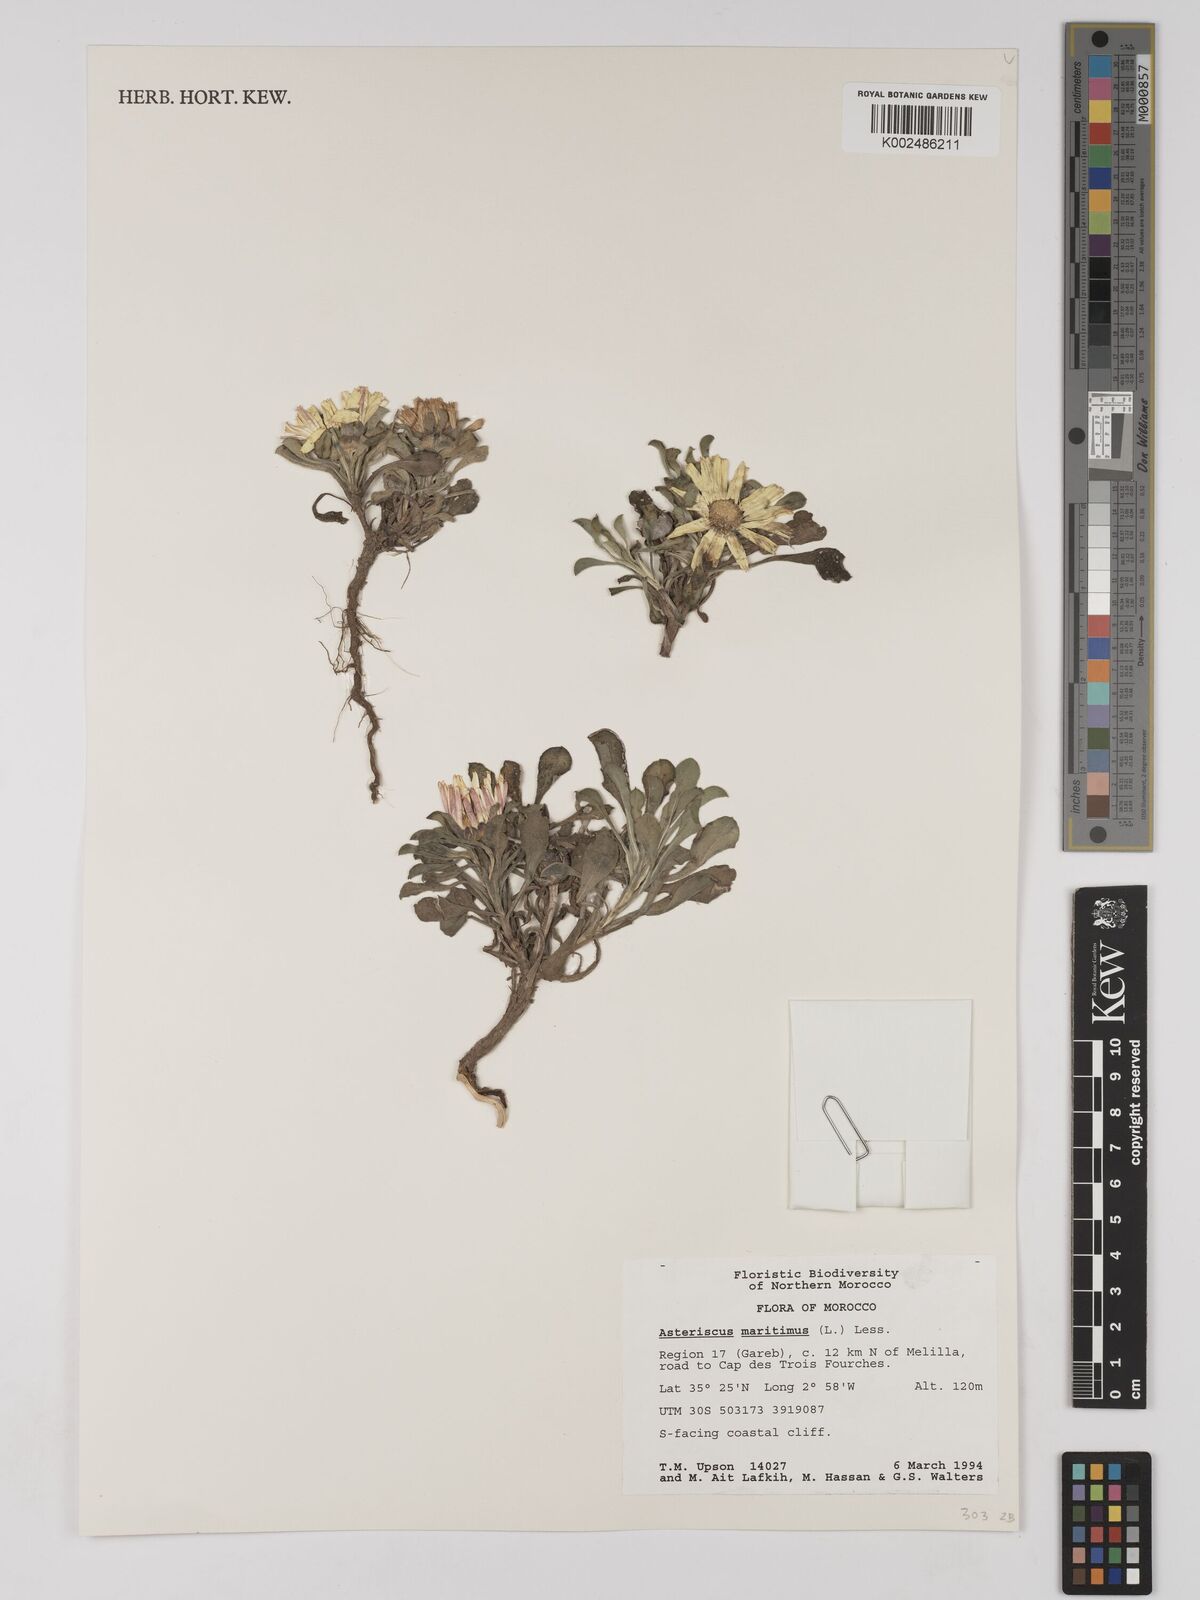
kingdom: Plantae
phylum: Tracheophyta
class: Magnoliopsida
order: Asterales
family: Asteraceae
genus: Pallenis
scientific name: Pallenis maritima
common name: Golden coin daisy
